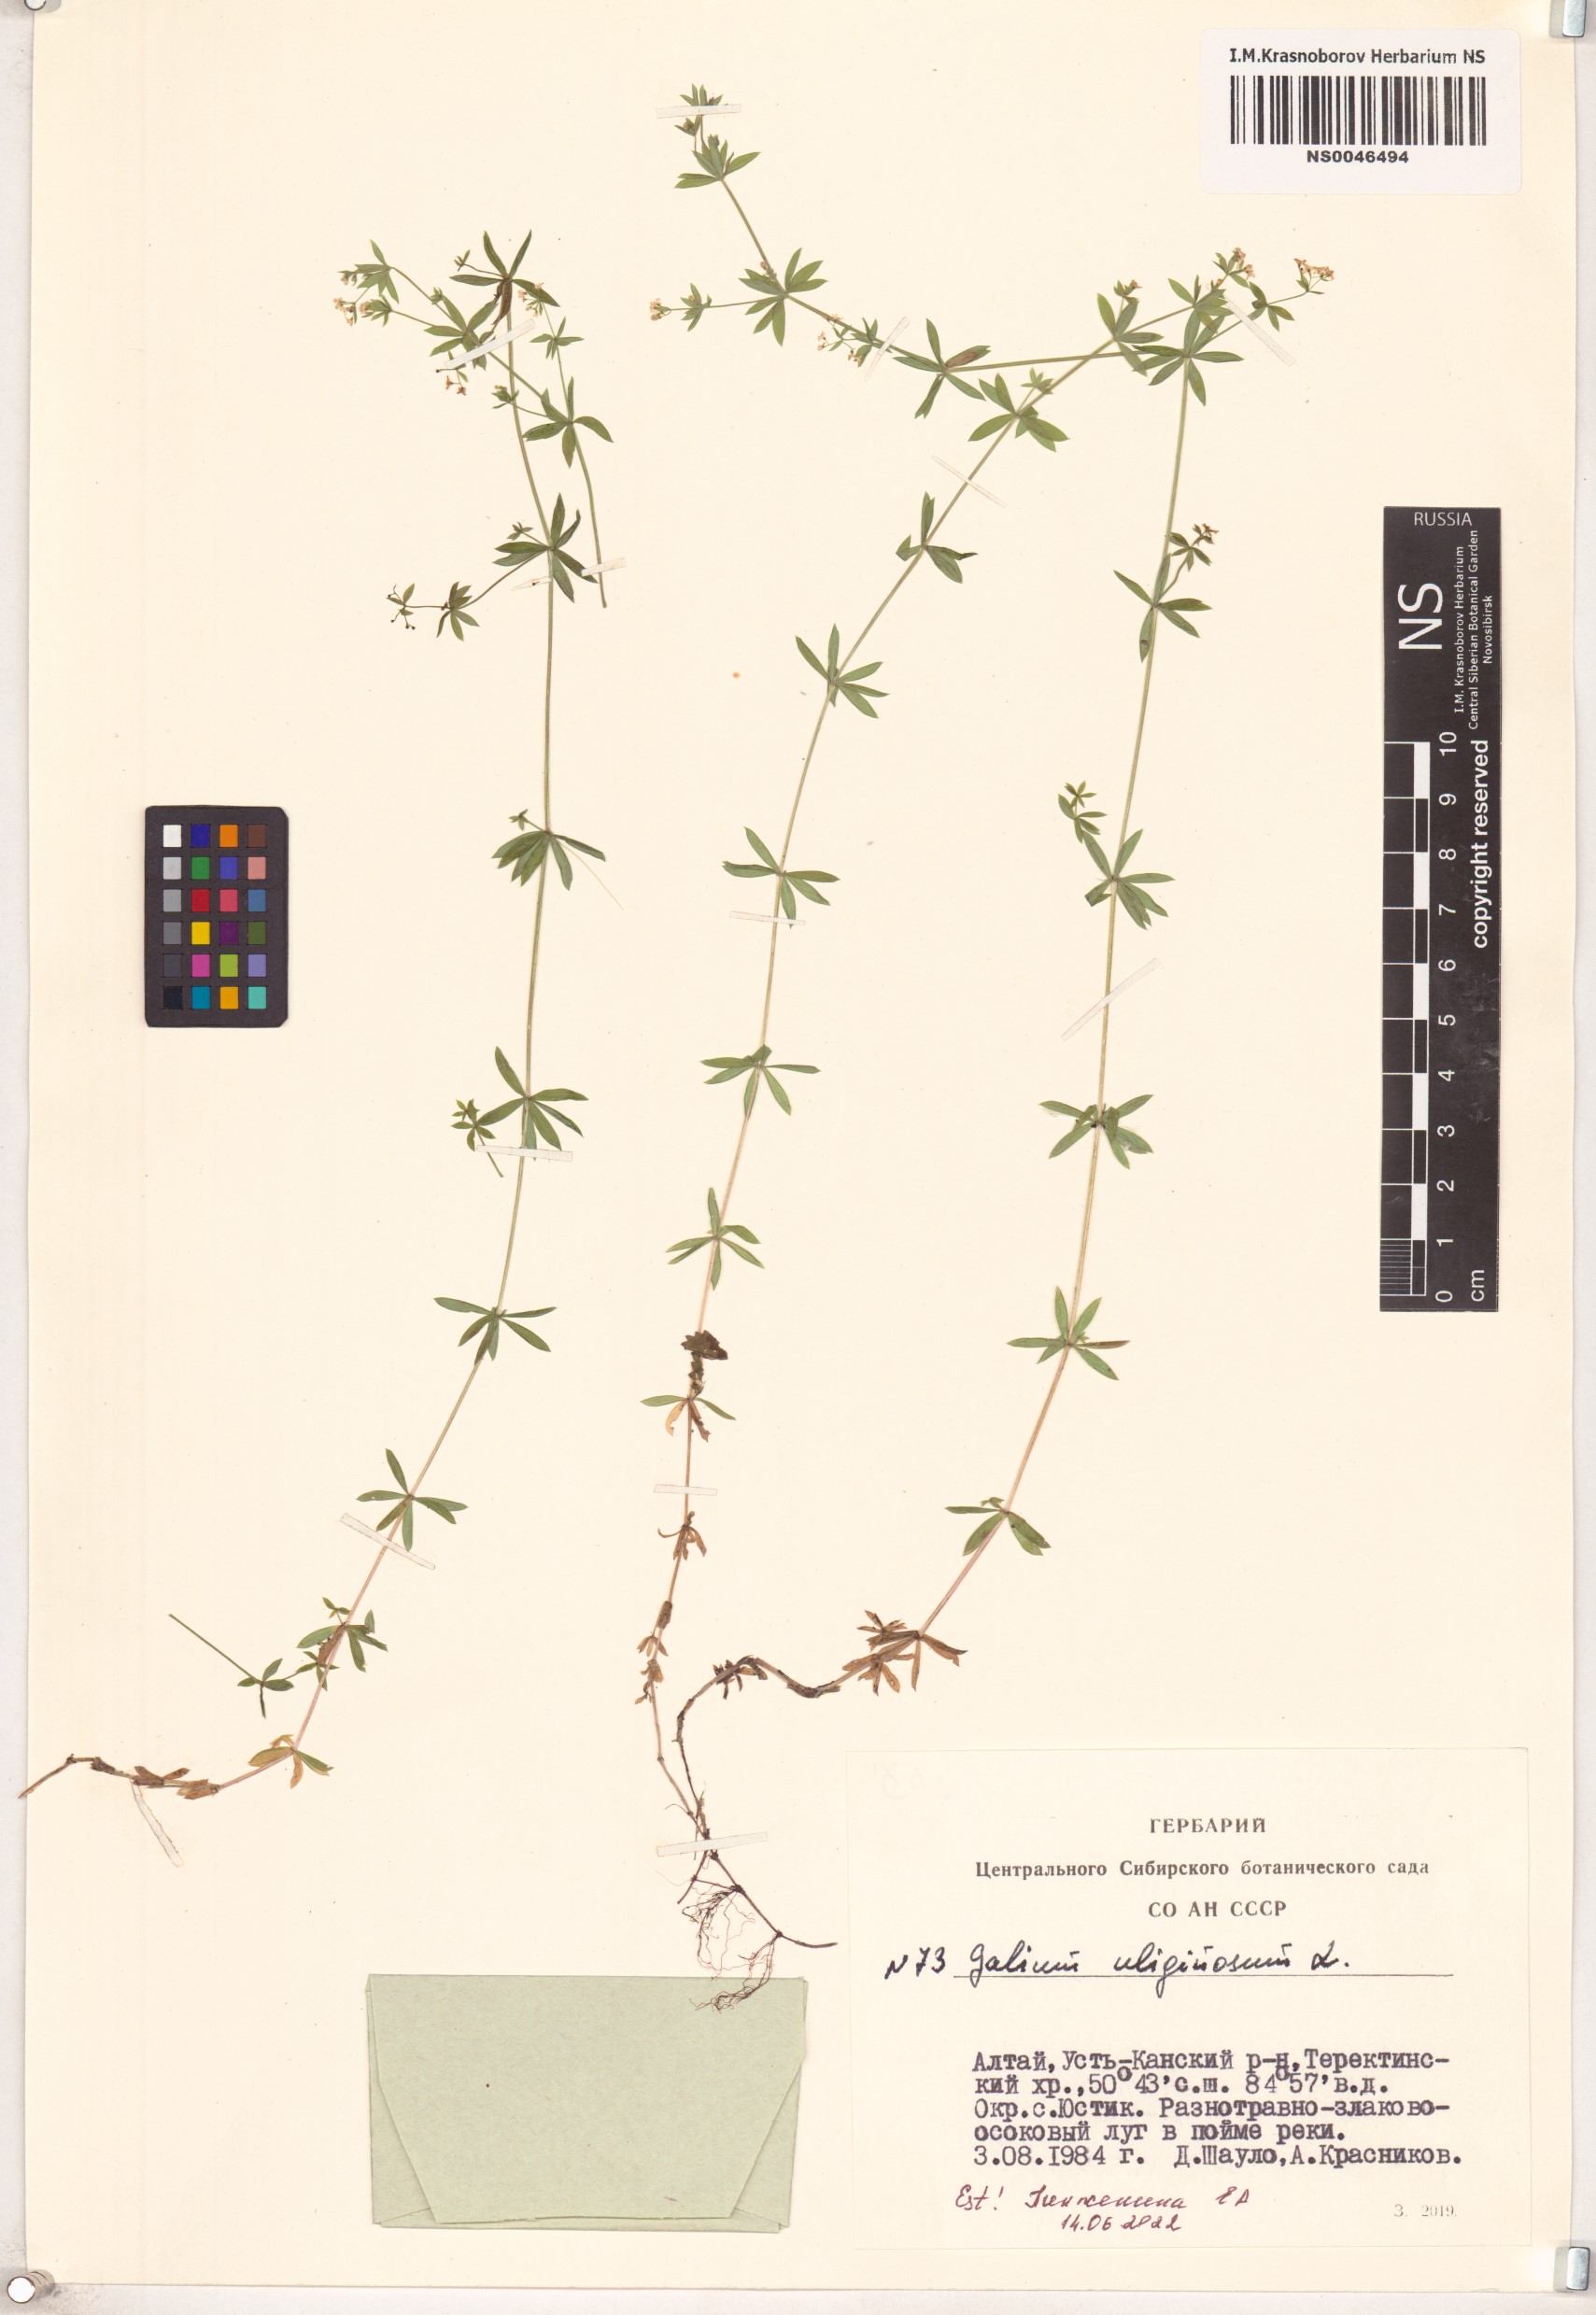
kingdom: Plantae
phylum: Tracheophyta
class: Magnoliopsida
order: Gentianales
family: Rubiaceae
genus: Galium
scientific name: Galium uliginosum
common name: Fen bedstraw
